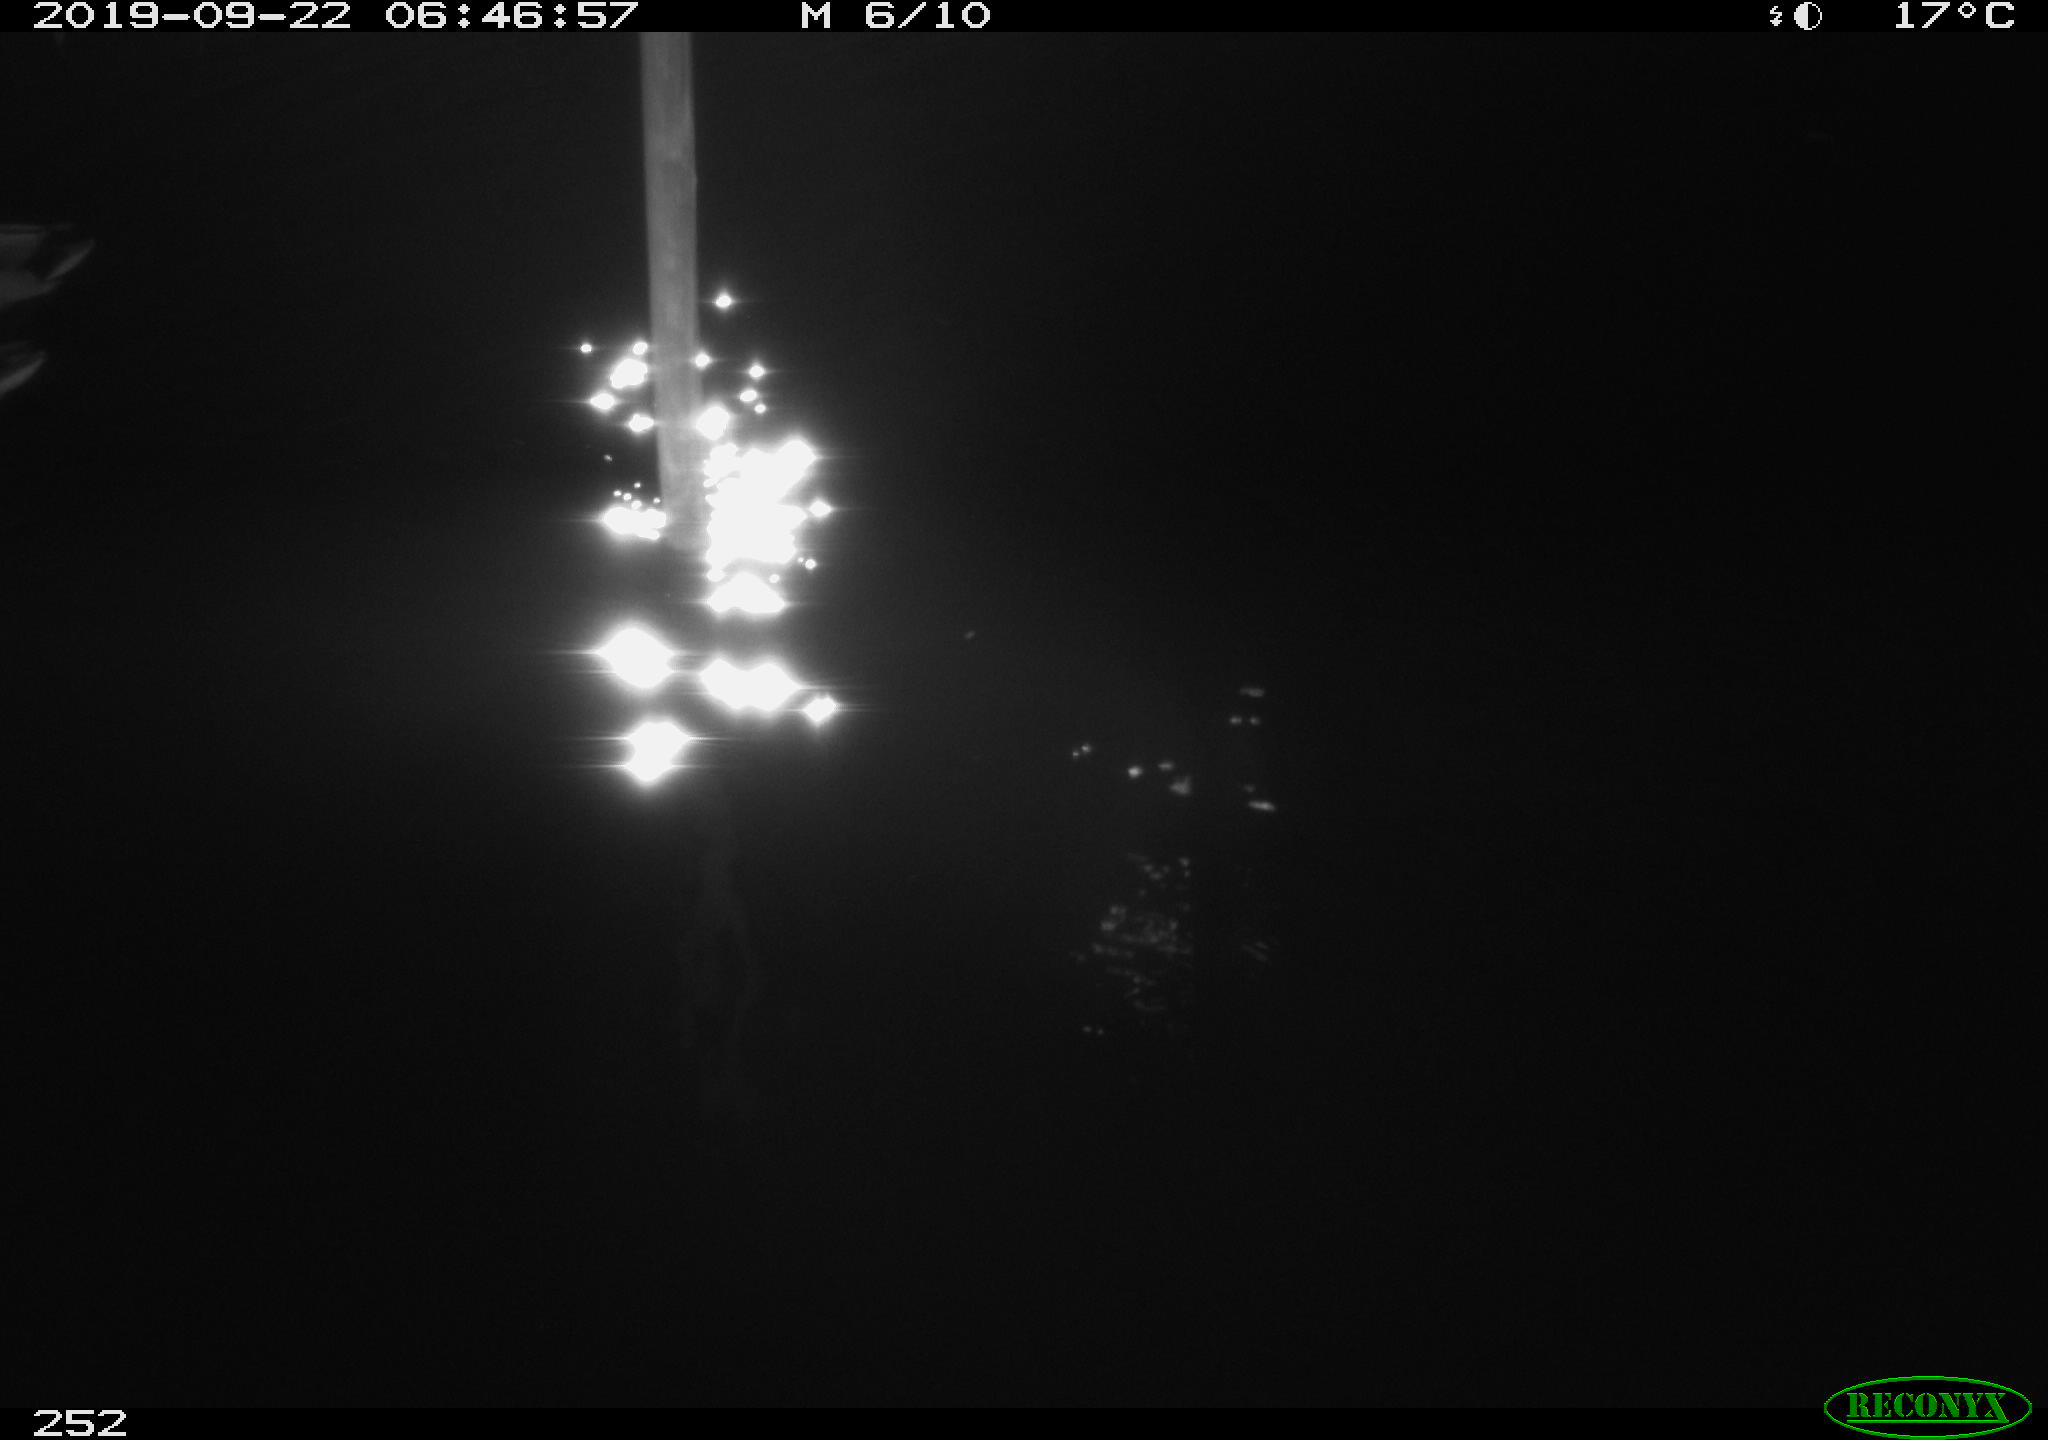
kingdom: Animalia
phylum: Chordata
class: Aves
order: Anseriformes
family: Anatidae
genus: Anas
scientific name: Anas platyrhynchos
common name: Mallard
